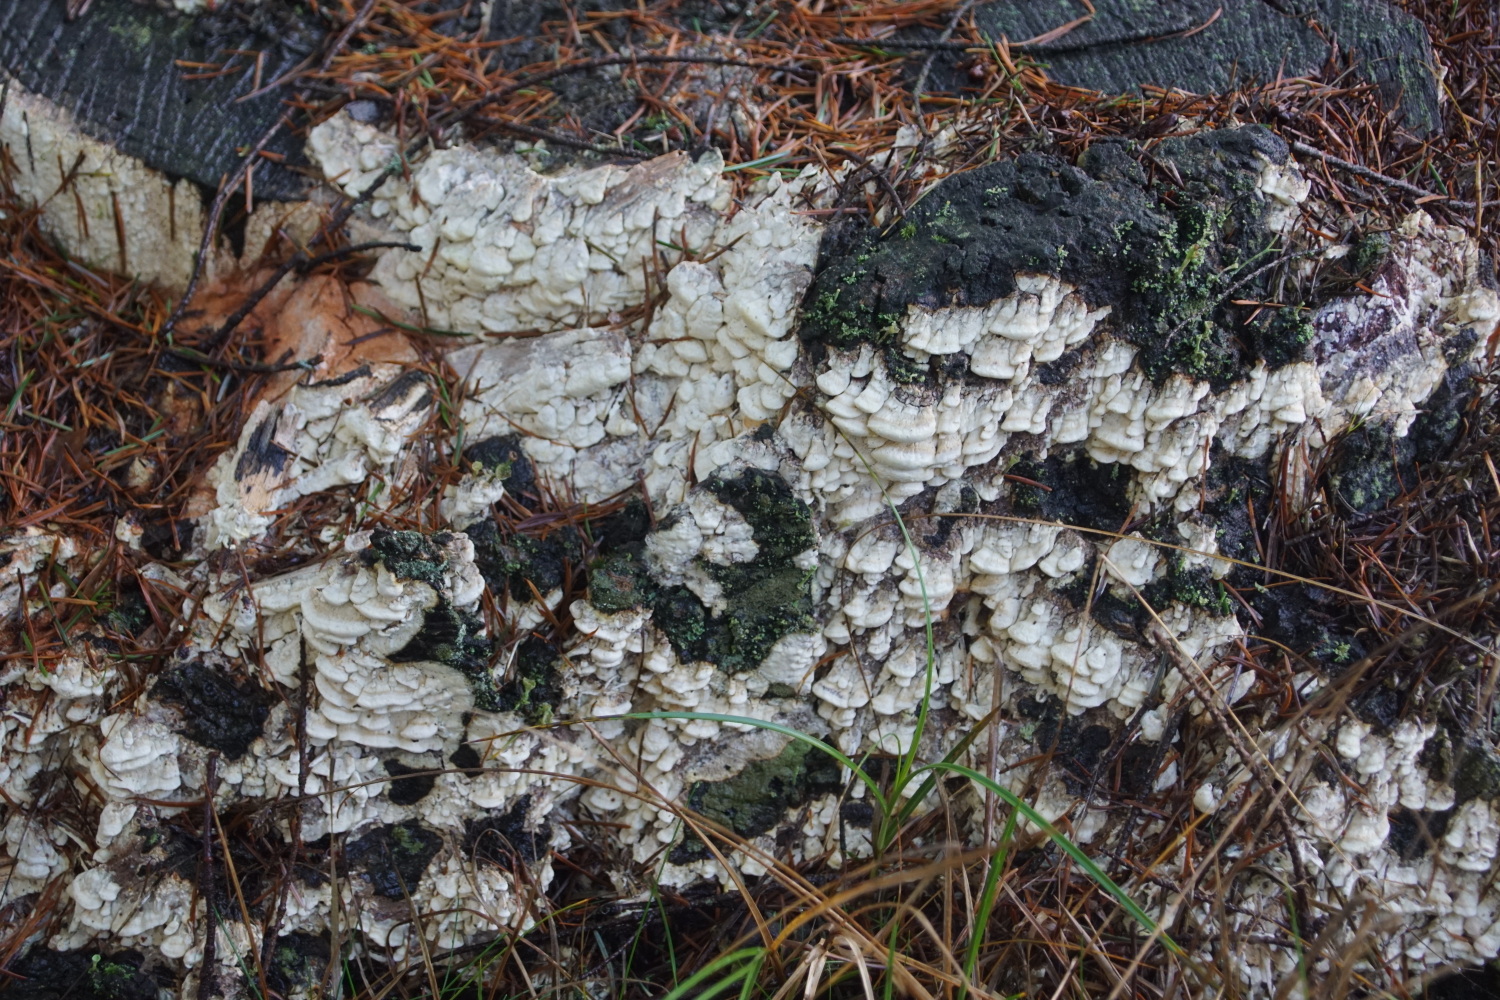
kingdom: Fungi
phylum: Basidiomycota
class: Agaricomycetes
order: Polyporales
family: Fomitopsidaceae
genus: Daedalea
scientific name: Daedalea xantha
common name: gul sejporesvamp
